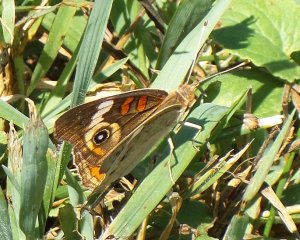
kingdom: Animalia
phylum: Arthropoda
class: Insecta
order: Lepidoptera
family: Nymphalidae
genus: Junonia
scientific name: Junonia coenia
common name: Common Buckeye
